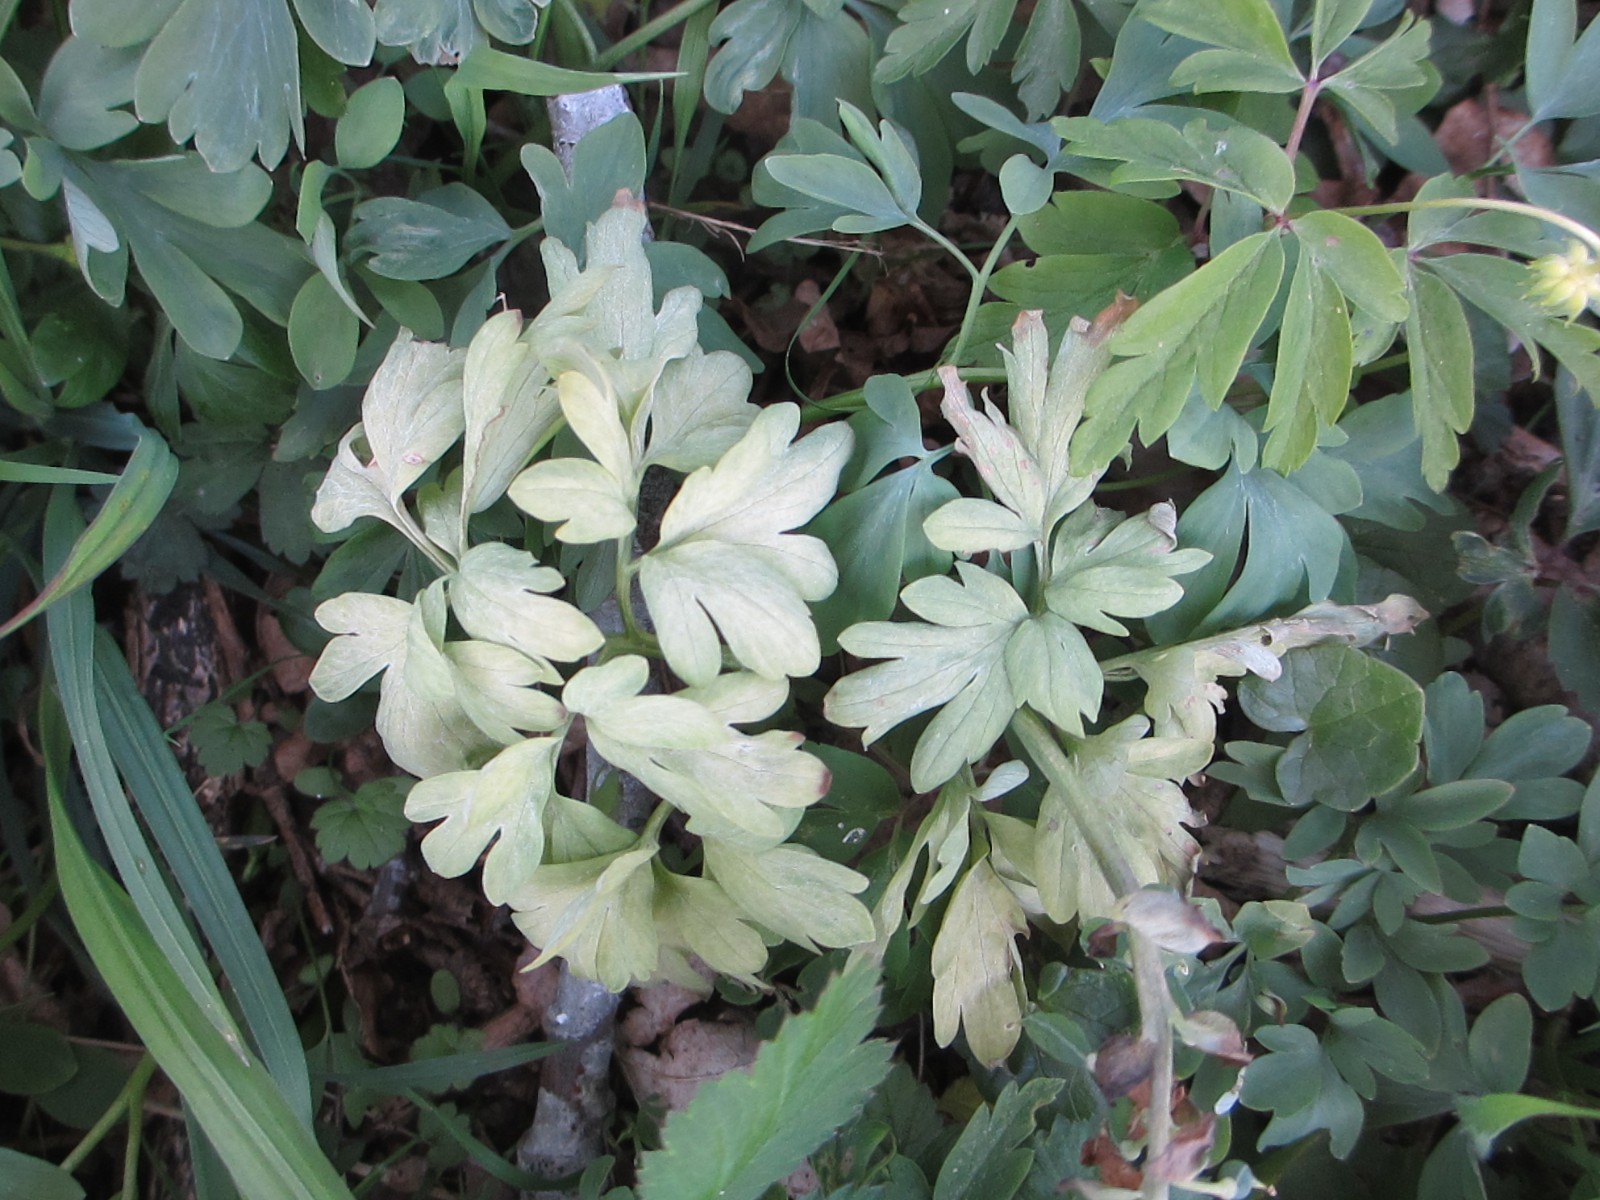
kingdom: Chromista
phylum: Oomycota
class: Peronosporea
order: Peronosporales
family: Peronosporaceae
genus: Peronospora
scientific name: Peronospora bulbocapni
